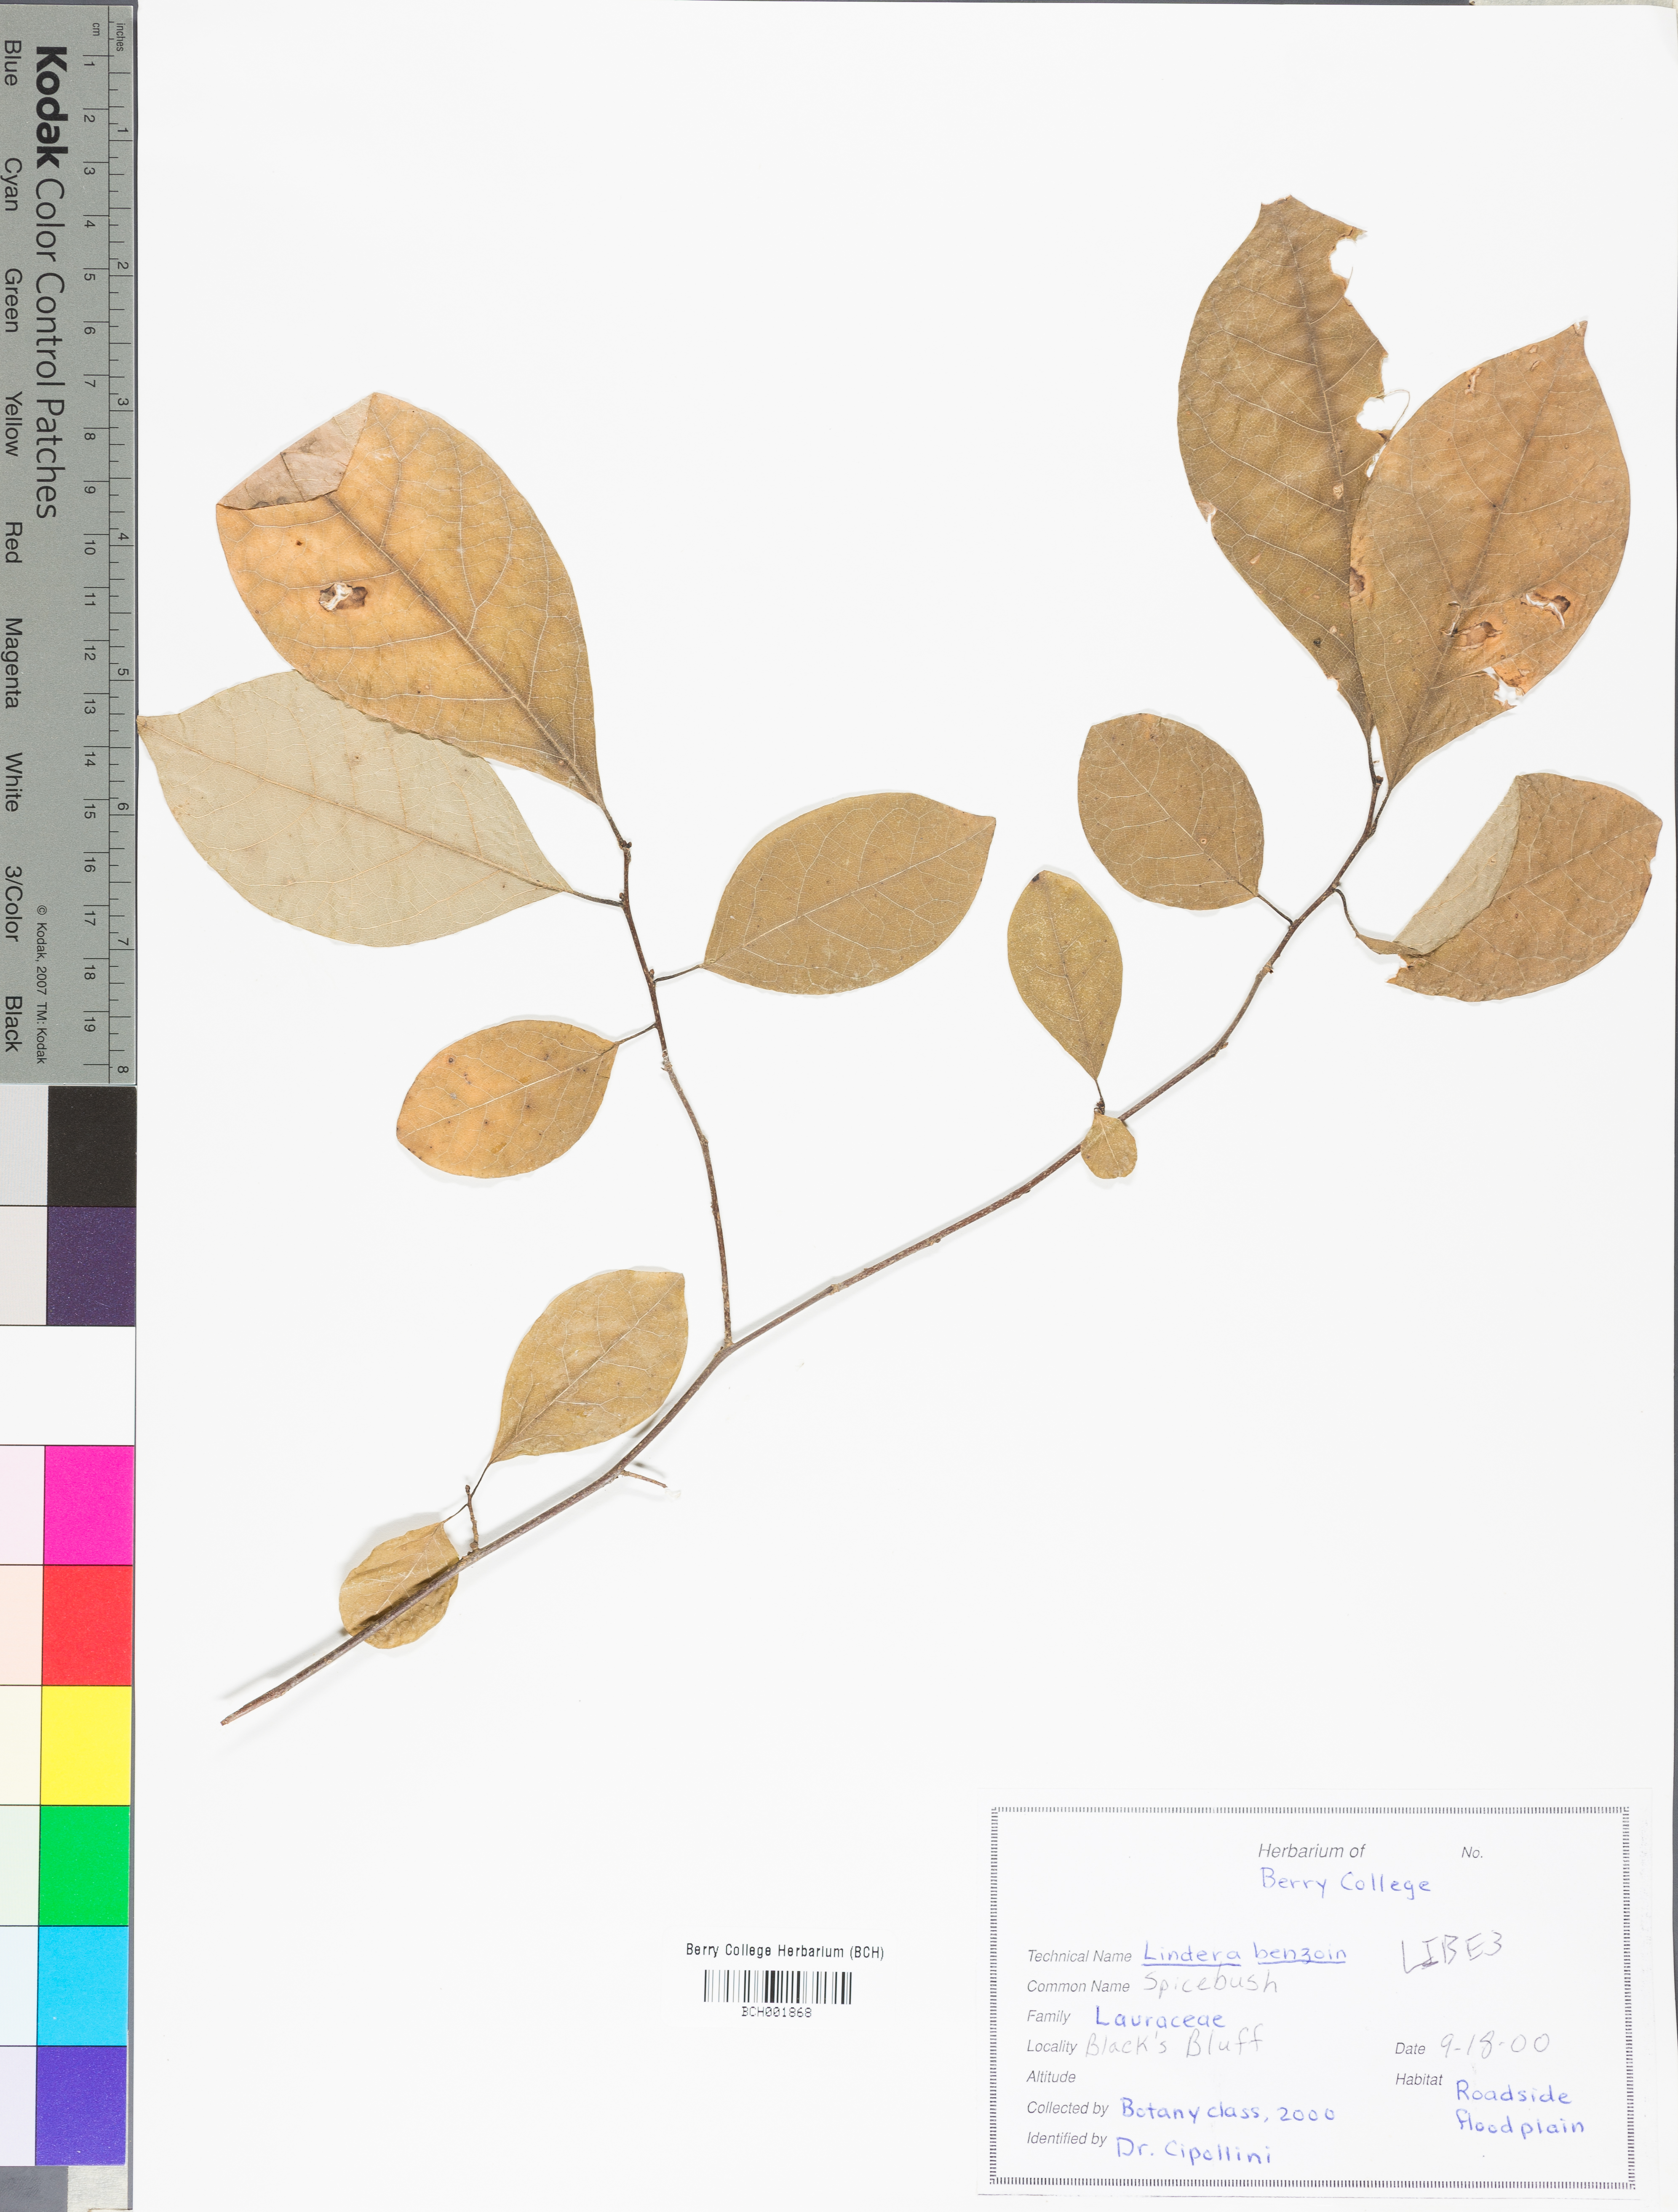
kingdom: Plantae
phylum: Tracheophyta
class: Magnoliopsida
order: Laurales
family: Lauraceae
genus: Lindera
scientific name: Lindera benzoin
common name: Spicebush
